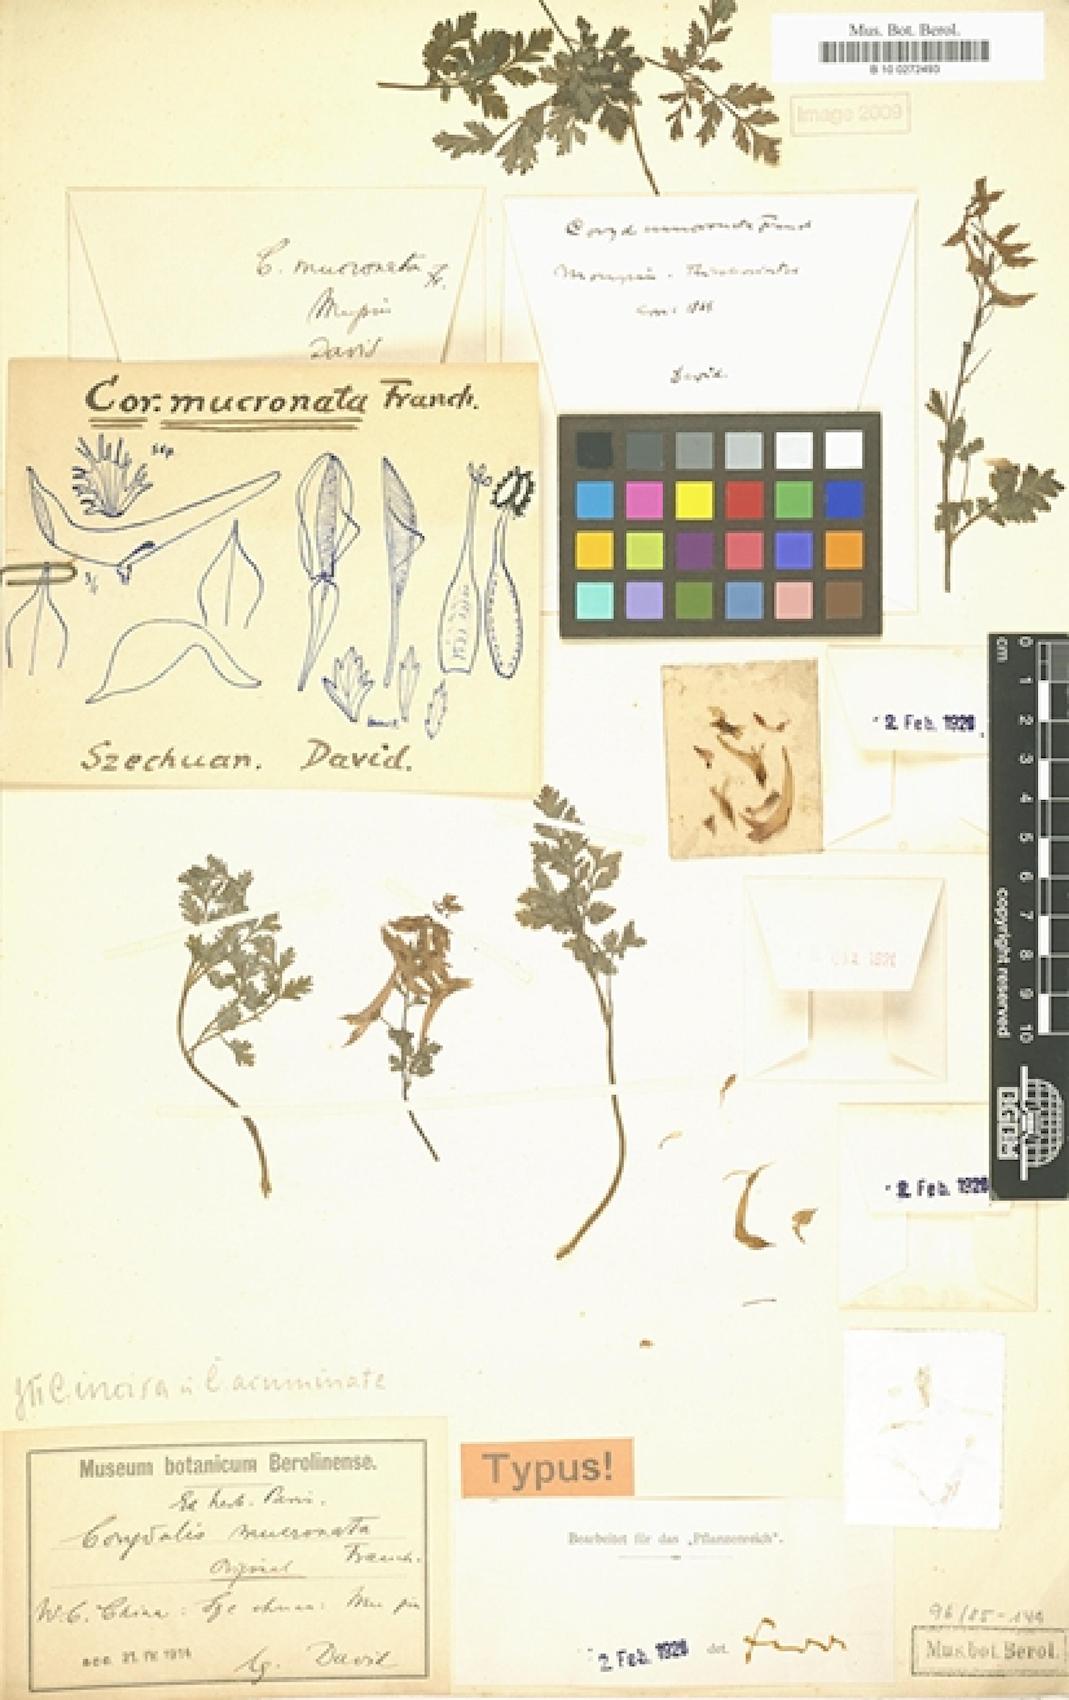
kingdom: Plantae
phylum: Tracheophyta
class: Magnoliopsida
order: Ranunculales
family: Papaveraceae
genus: Corydalis
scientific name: Corydalis mucronata
